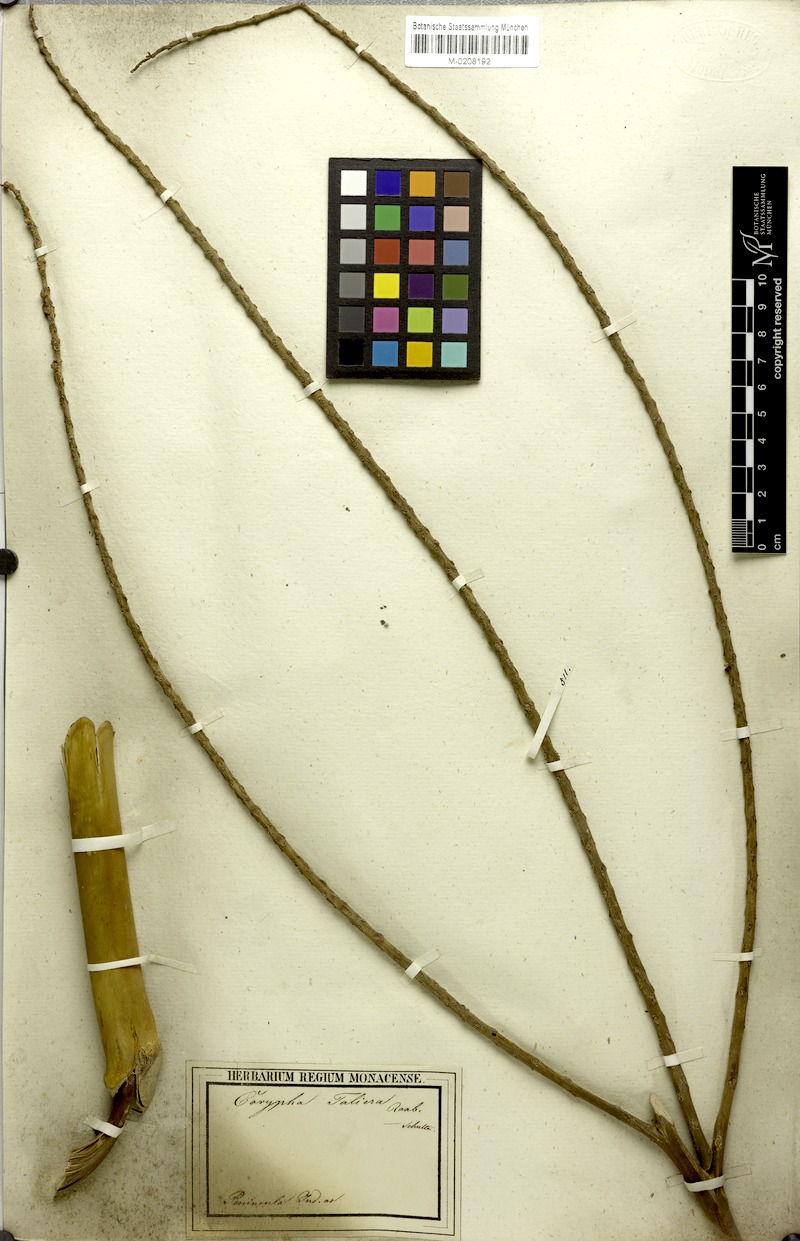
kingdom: Plantae
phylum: Tracheophyta
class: Liliopsida
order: Arecales
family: Arecaceae
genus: Corypha
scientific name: Corypha taliera
